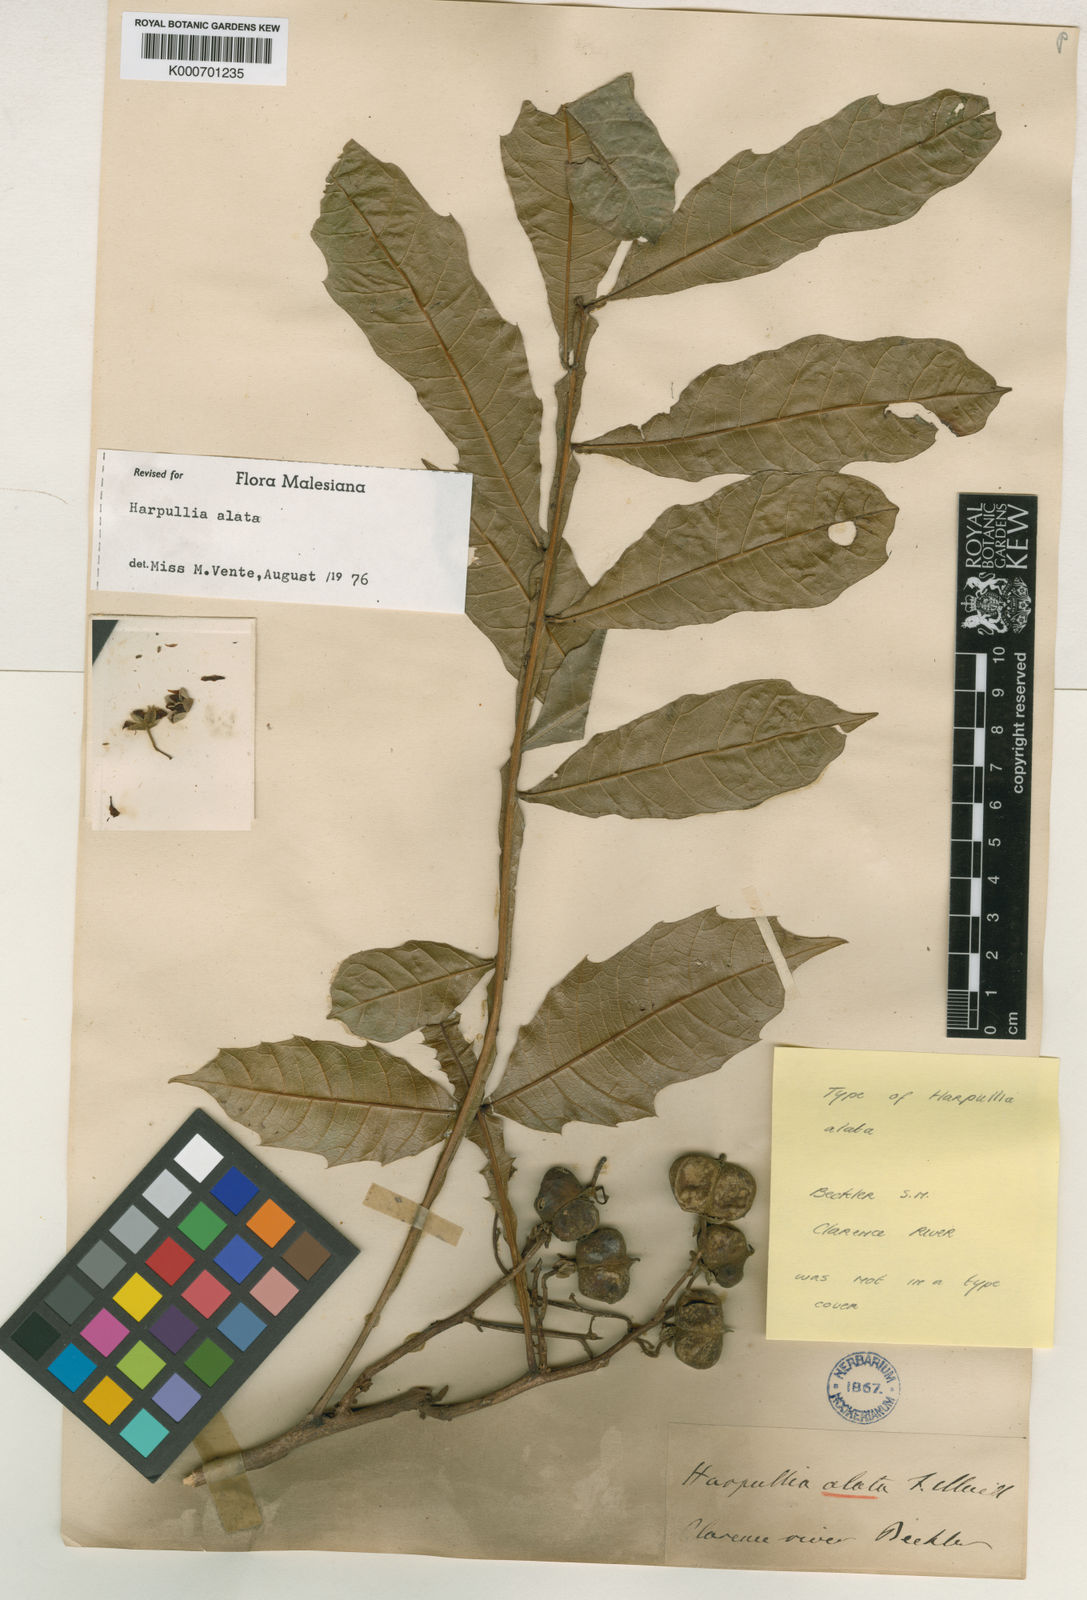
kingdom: Plantae
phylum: Tracheophyta
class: Magnoliopsida
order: Sapindales
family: Sapindaceae
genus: Harpullia
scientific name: Harpullia alata
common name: Wing-leaved tulip
